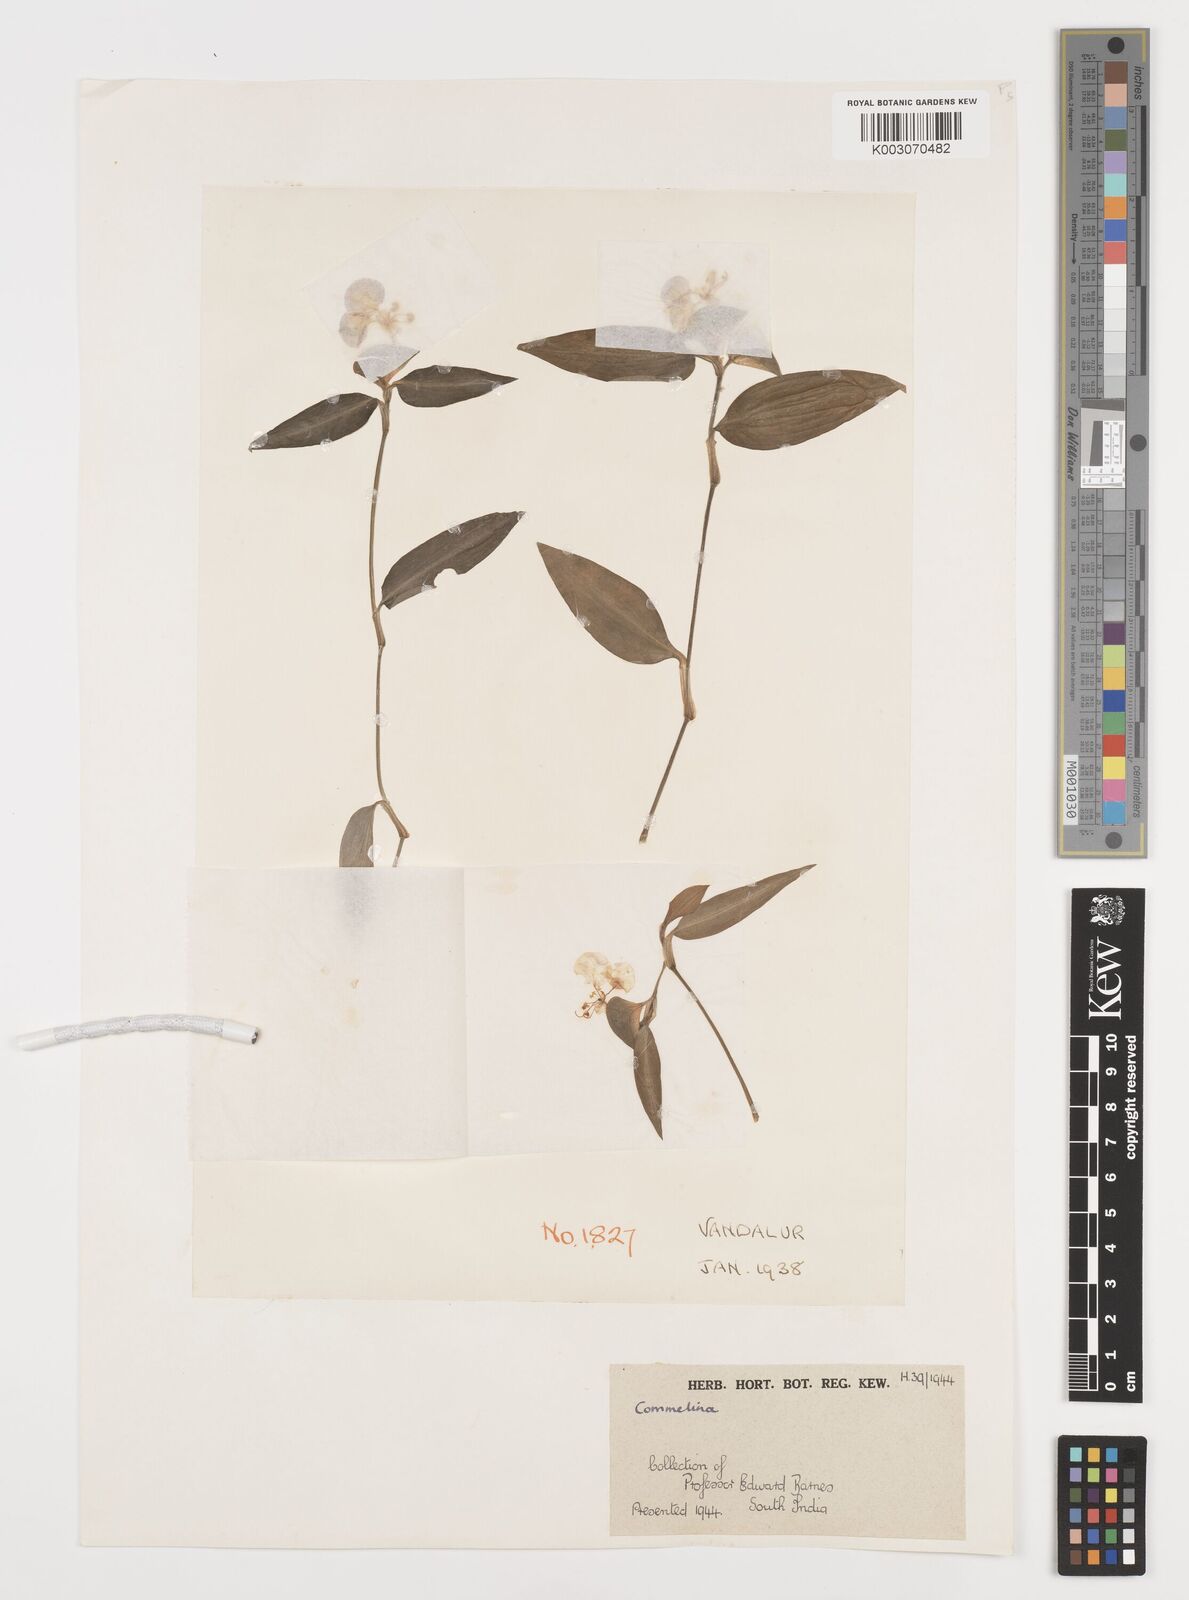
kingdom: Plantae
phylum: Tracheophyta
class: Liliopsida
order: Commelinales
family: Commelinaceae
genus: Commelina
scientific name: Commelina
